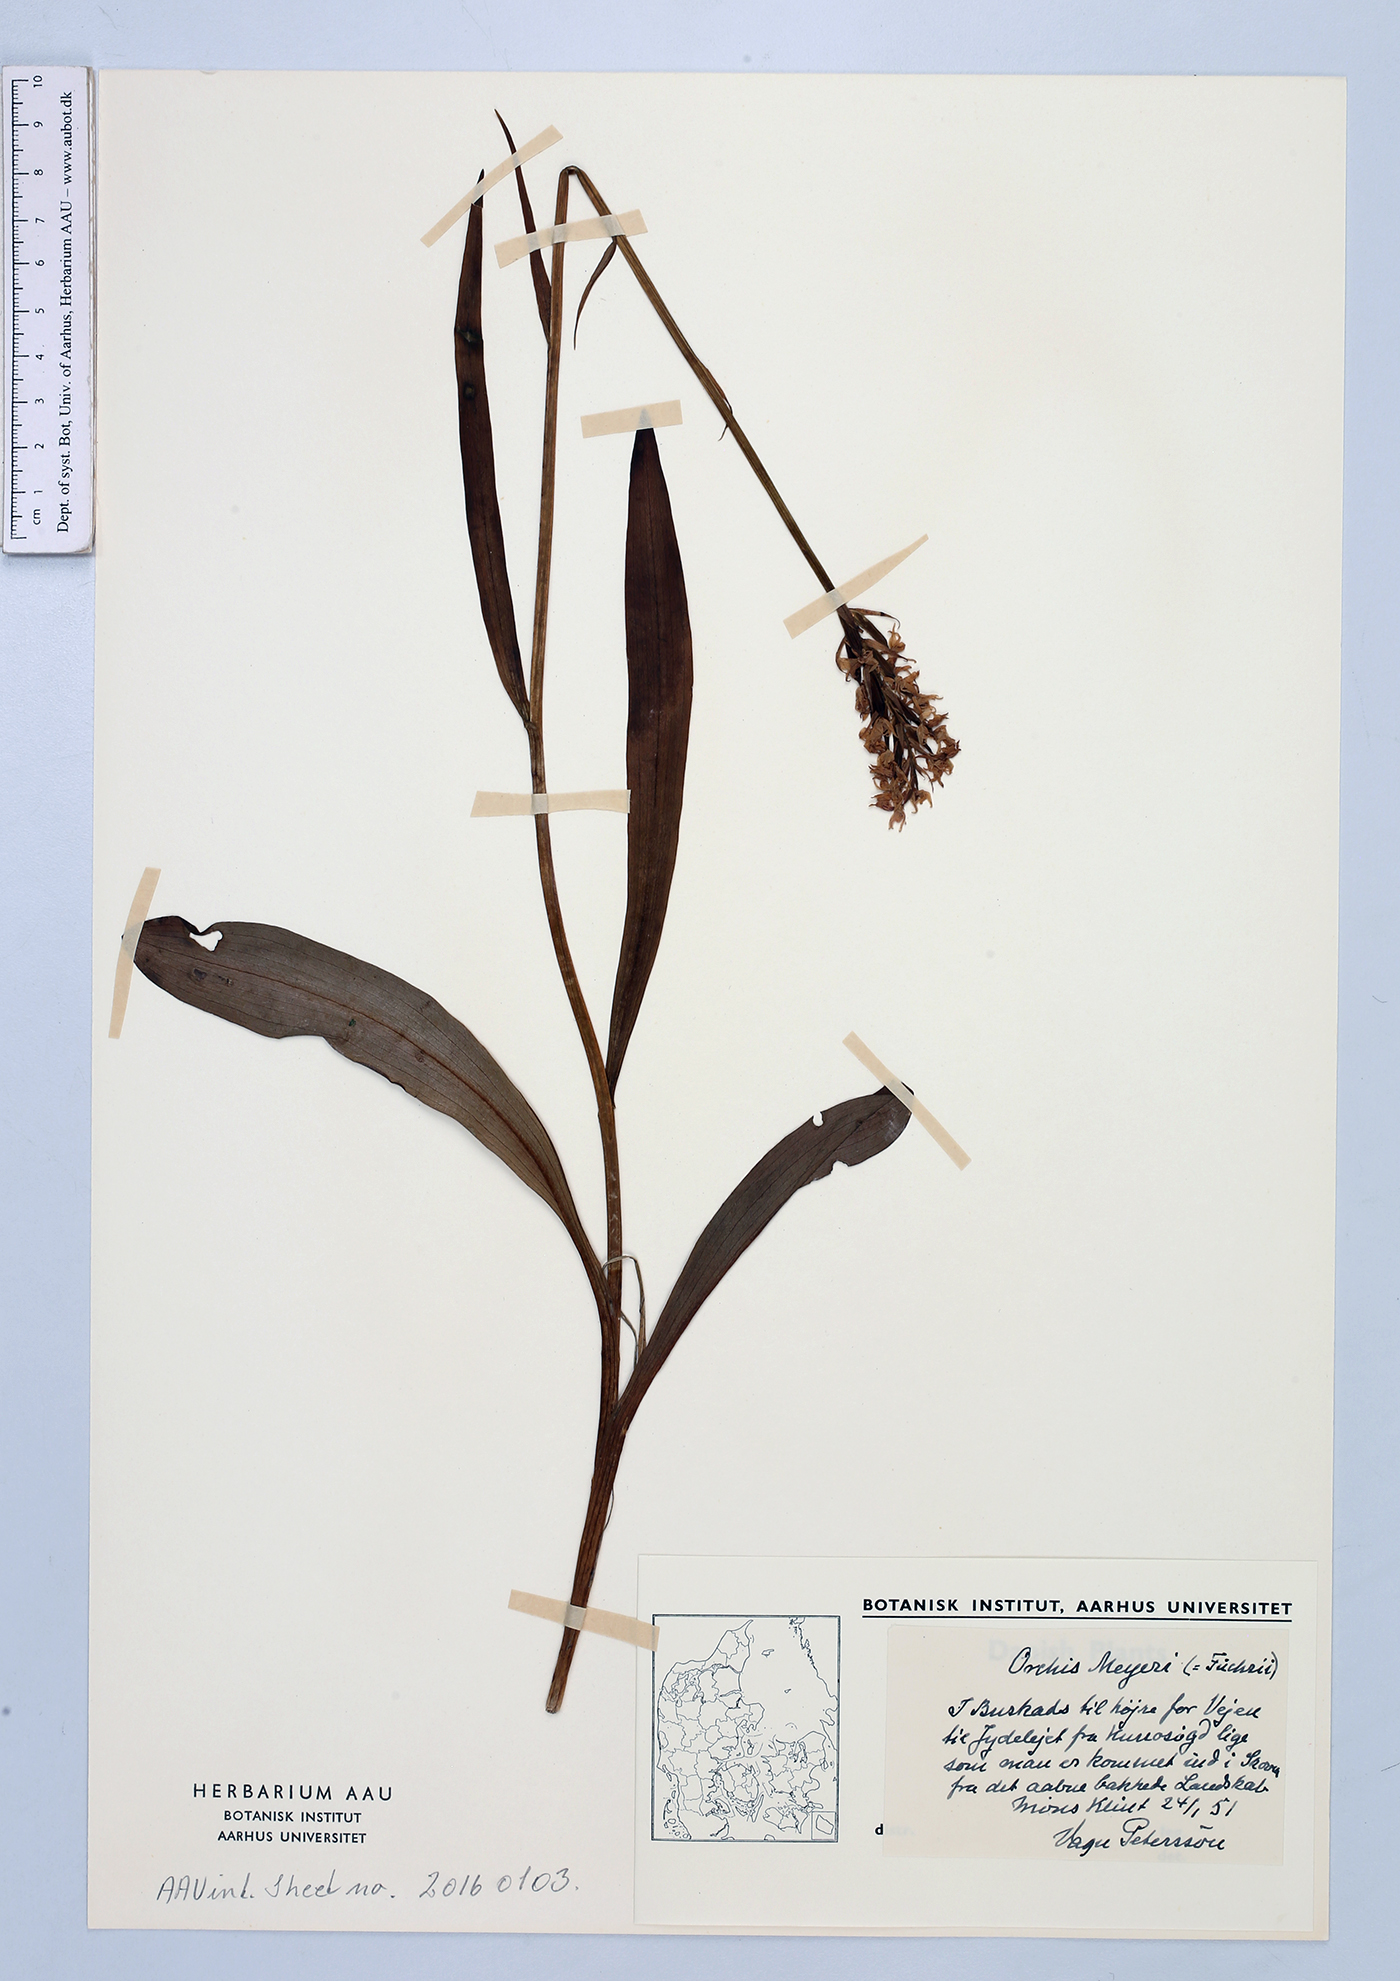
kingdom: Plantae
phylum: Tracheophyta
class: Liliopsida
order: Asparagales
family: Orchidaceae
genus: Dactylorhiza
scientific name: Dactylorhiza maculata
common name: Heath spotted-orchid
